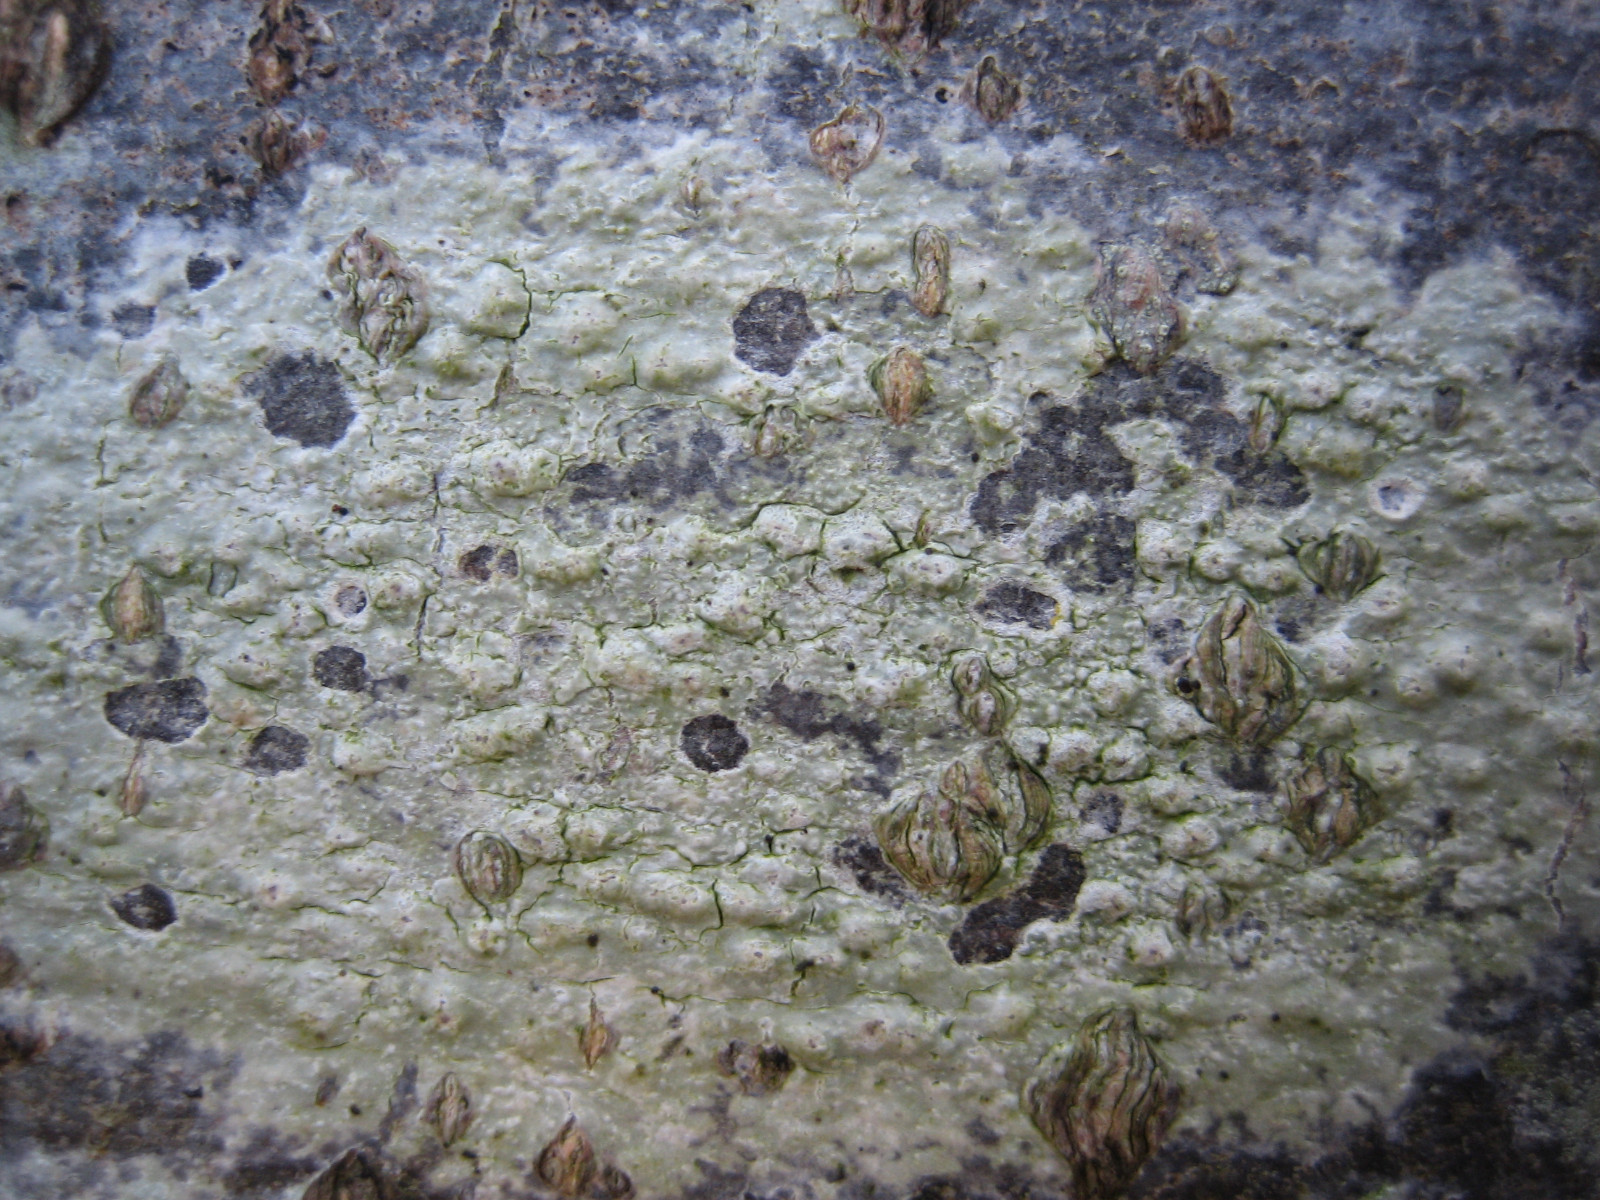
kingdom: Fungi
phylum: Ascomycota
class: Lecanoromycetes
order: Pertusariales
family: Pertusariaceae
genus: Pertusaria
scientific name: Pertusaria leioplaca
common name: tynd prikvortelav
